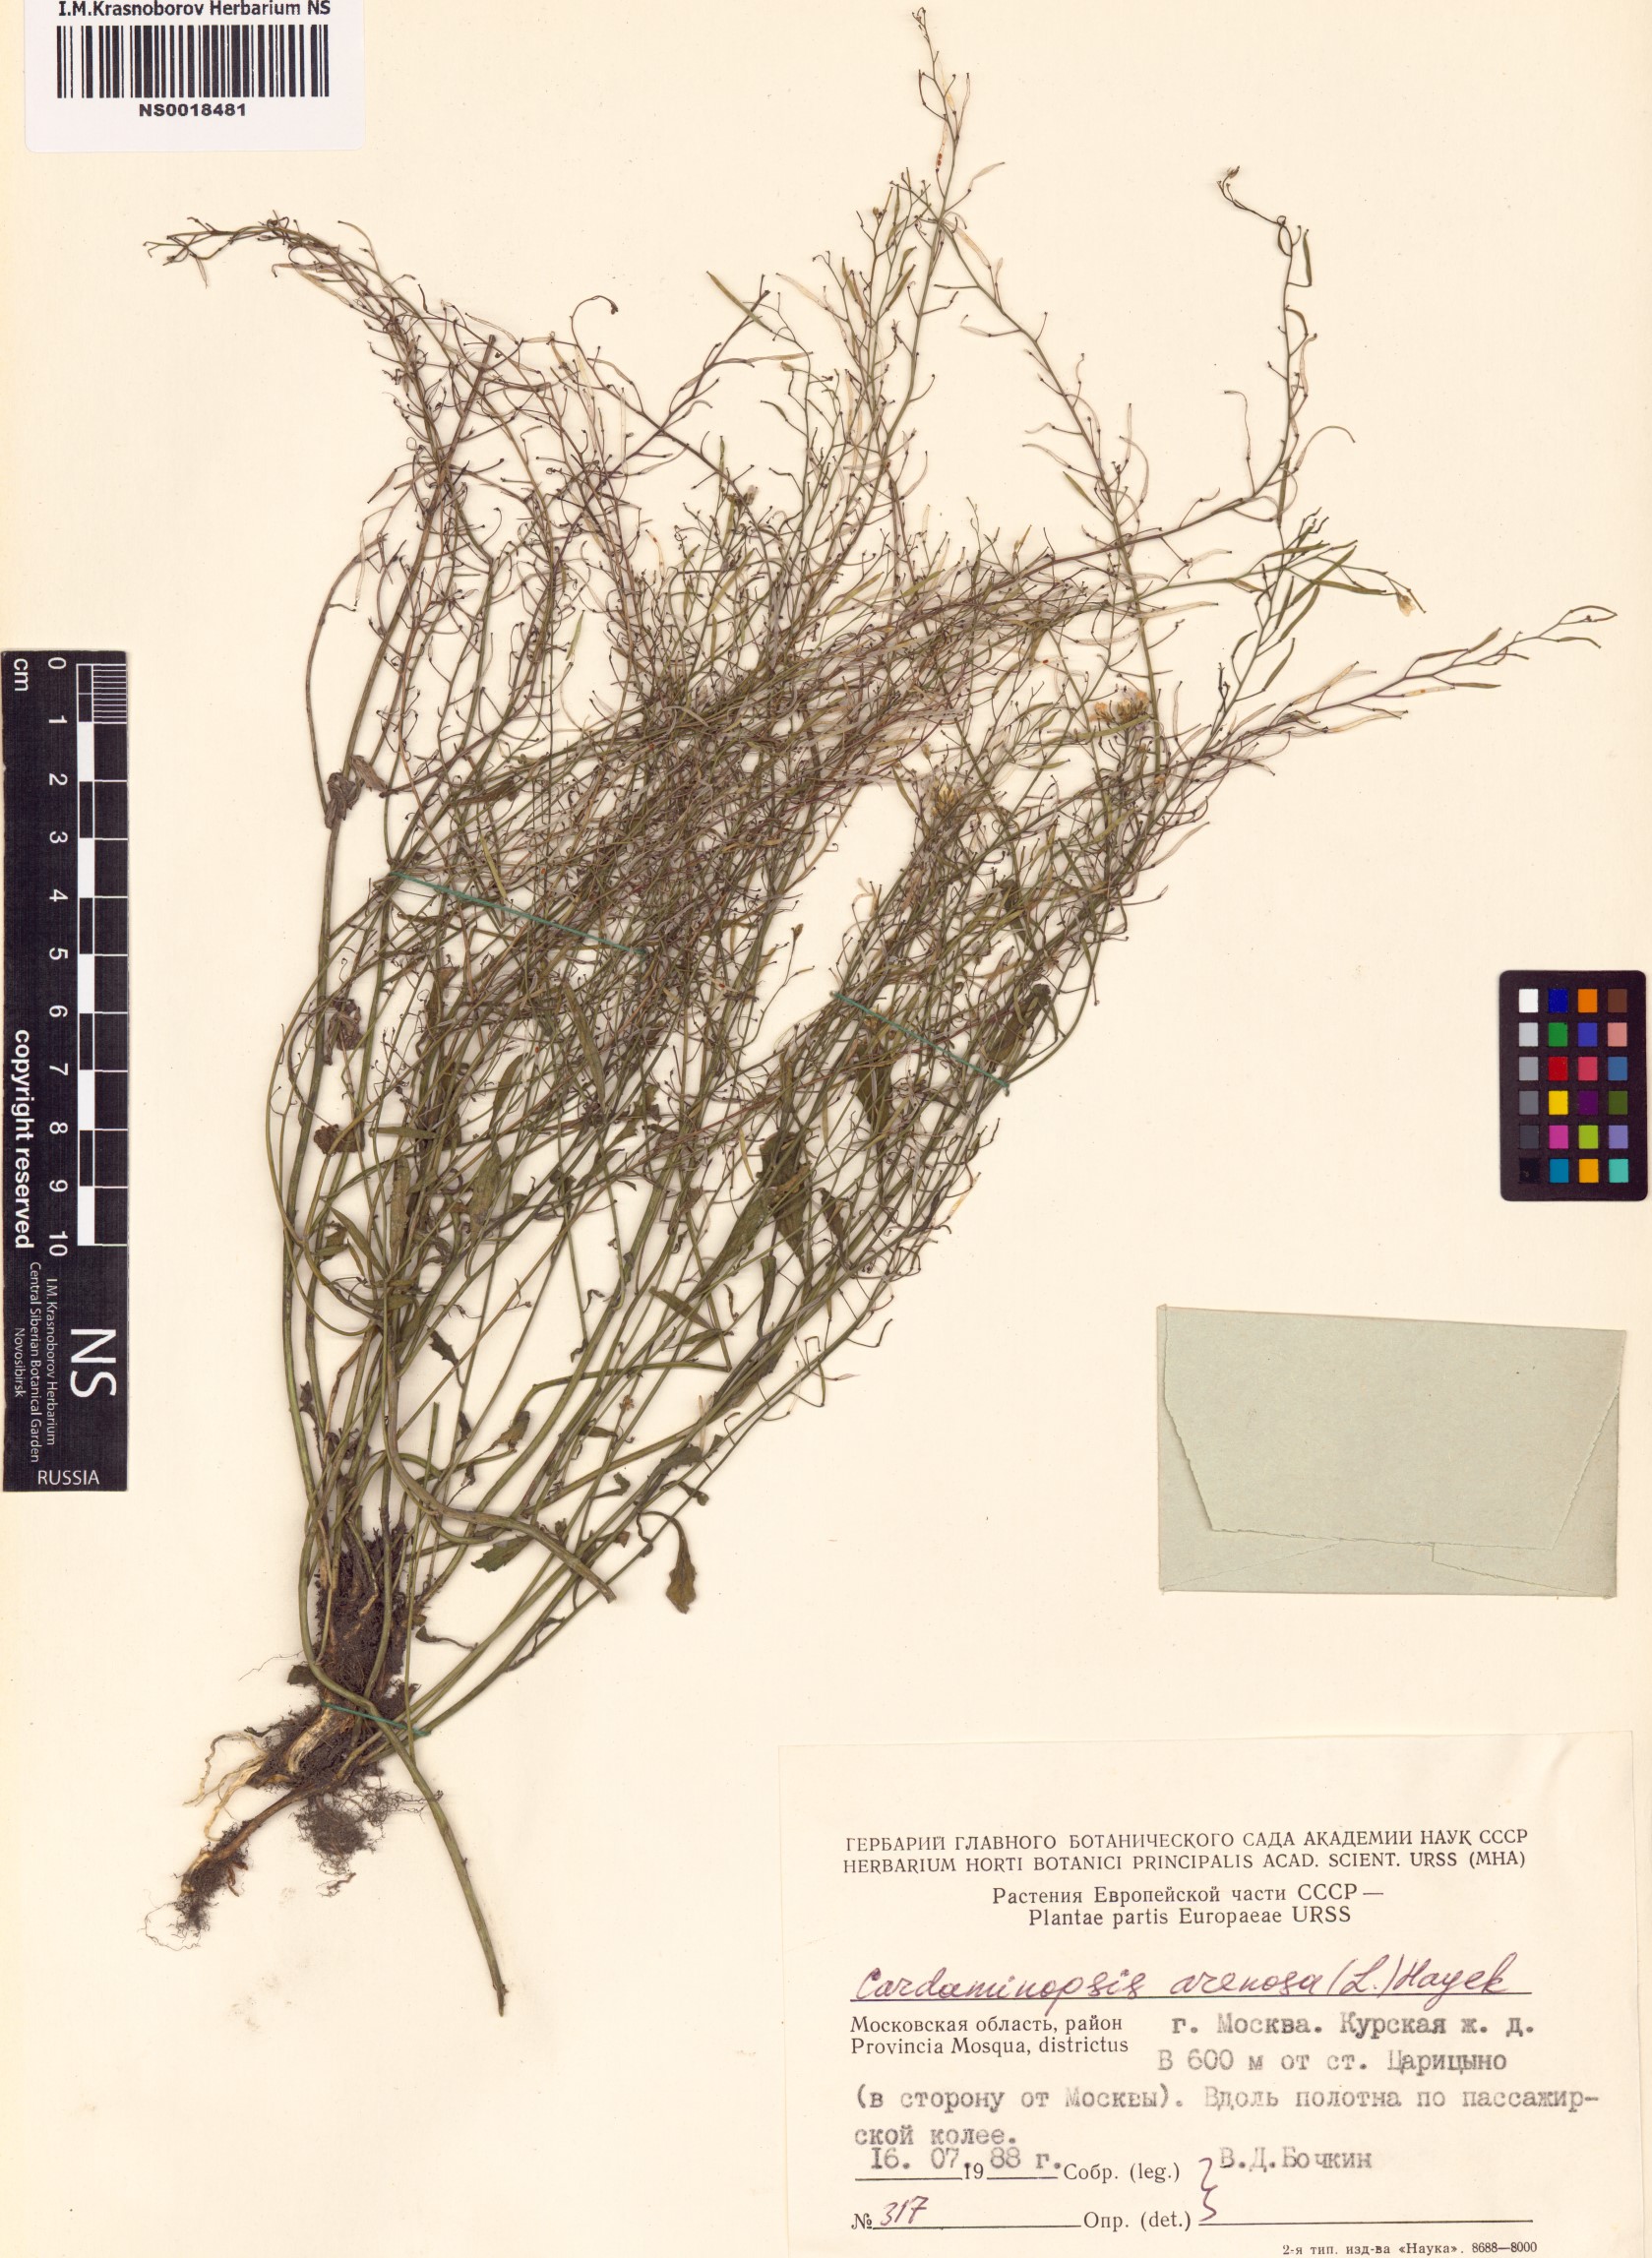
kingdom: Plantae
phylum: Tracheophyta
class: Magnoliopsida
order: Brassicales
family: Brassicaceae
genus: Arabidopsis
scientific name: Arabidopsis arenosa
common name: Sand rock-cress
